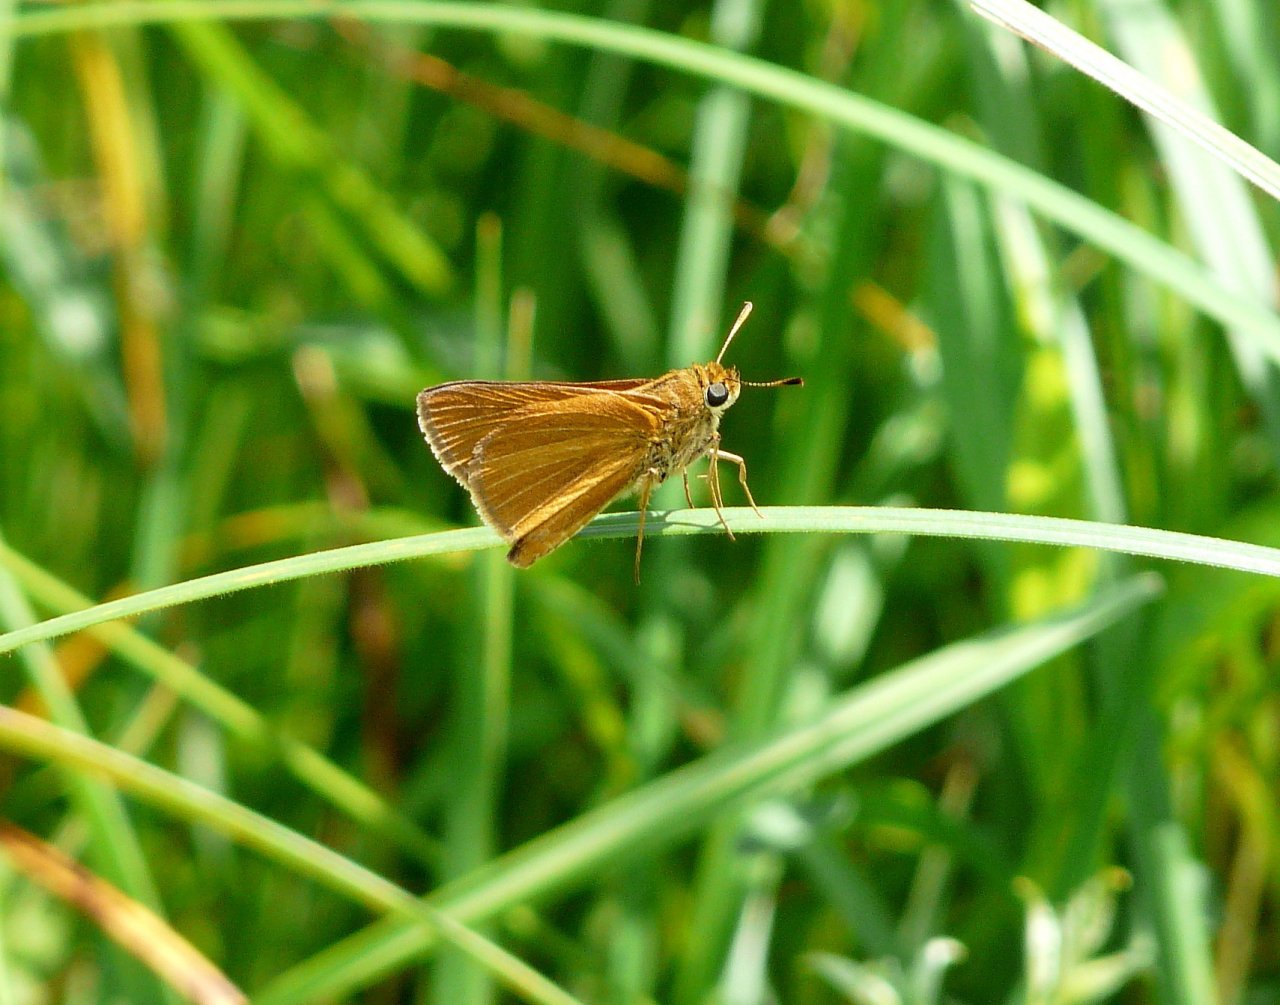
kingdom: Animalia
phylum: Arthropoda
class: Insecta
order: Lepidoptera
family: Hesperiidae
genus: Euphyes
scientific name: Euphyes dion
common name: Dion Skipper
